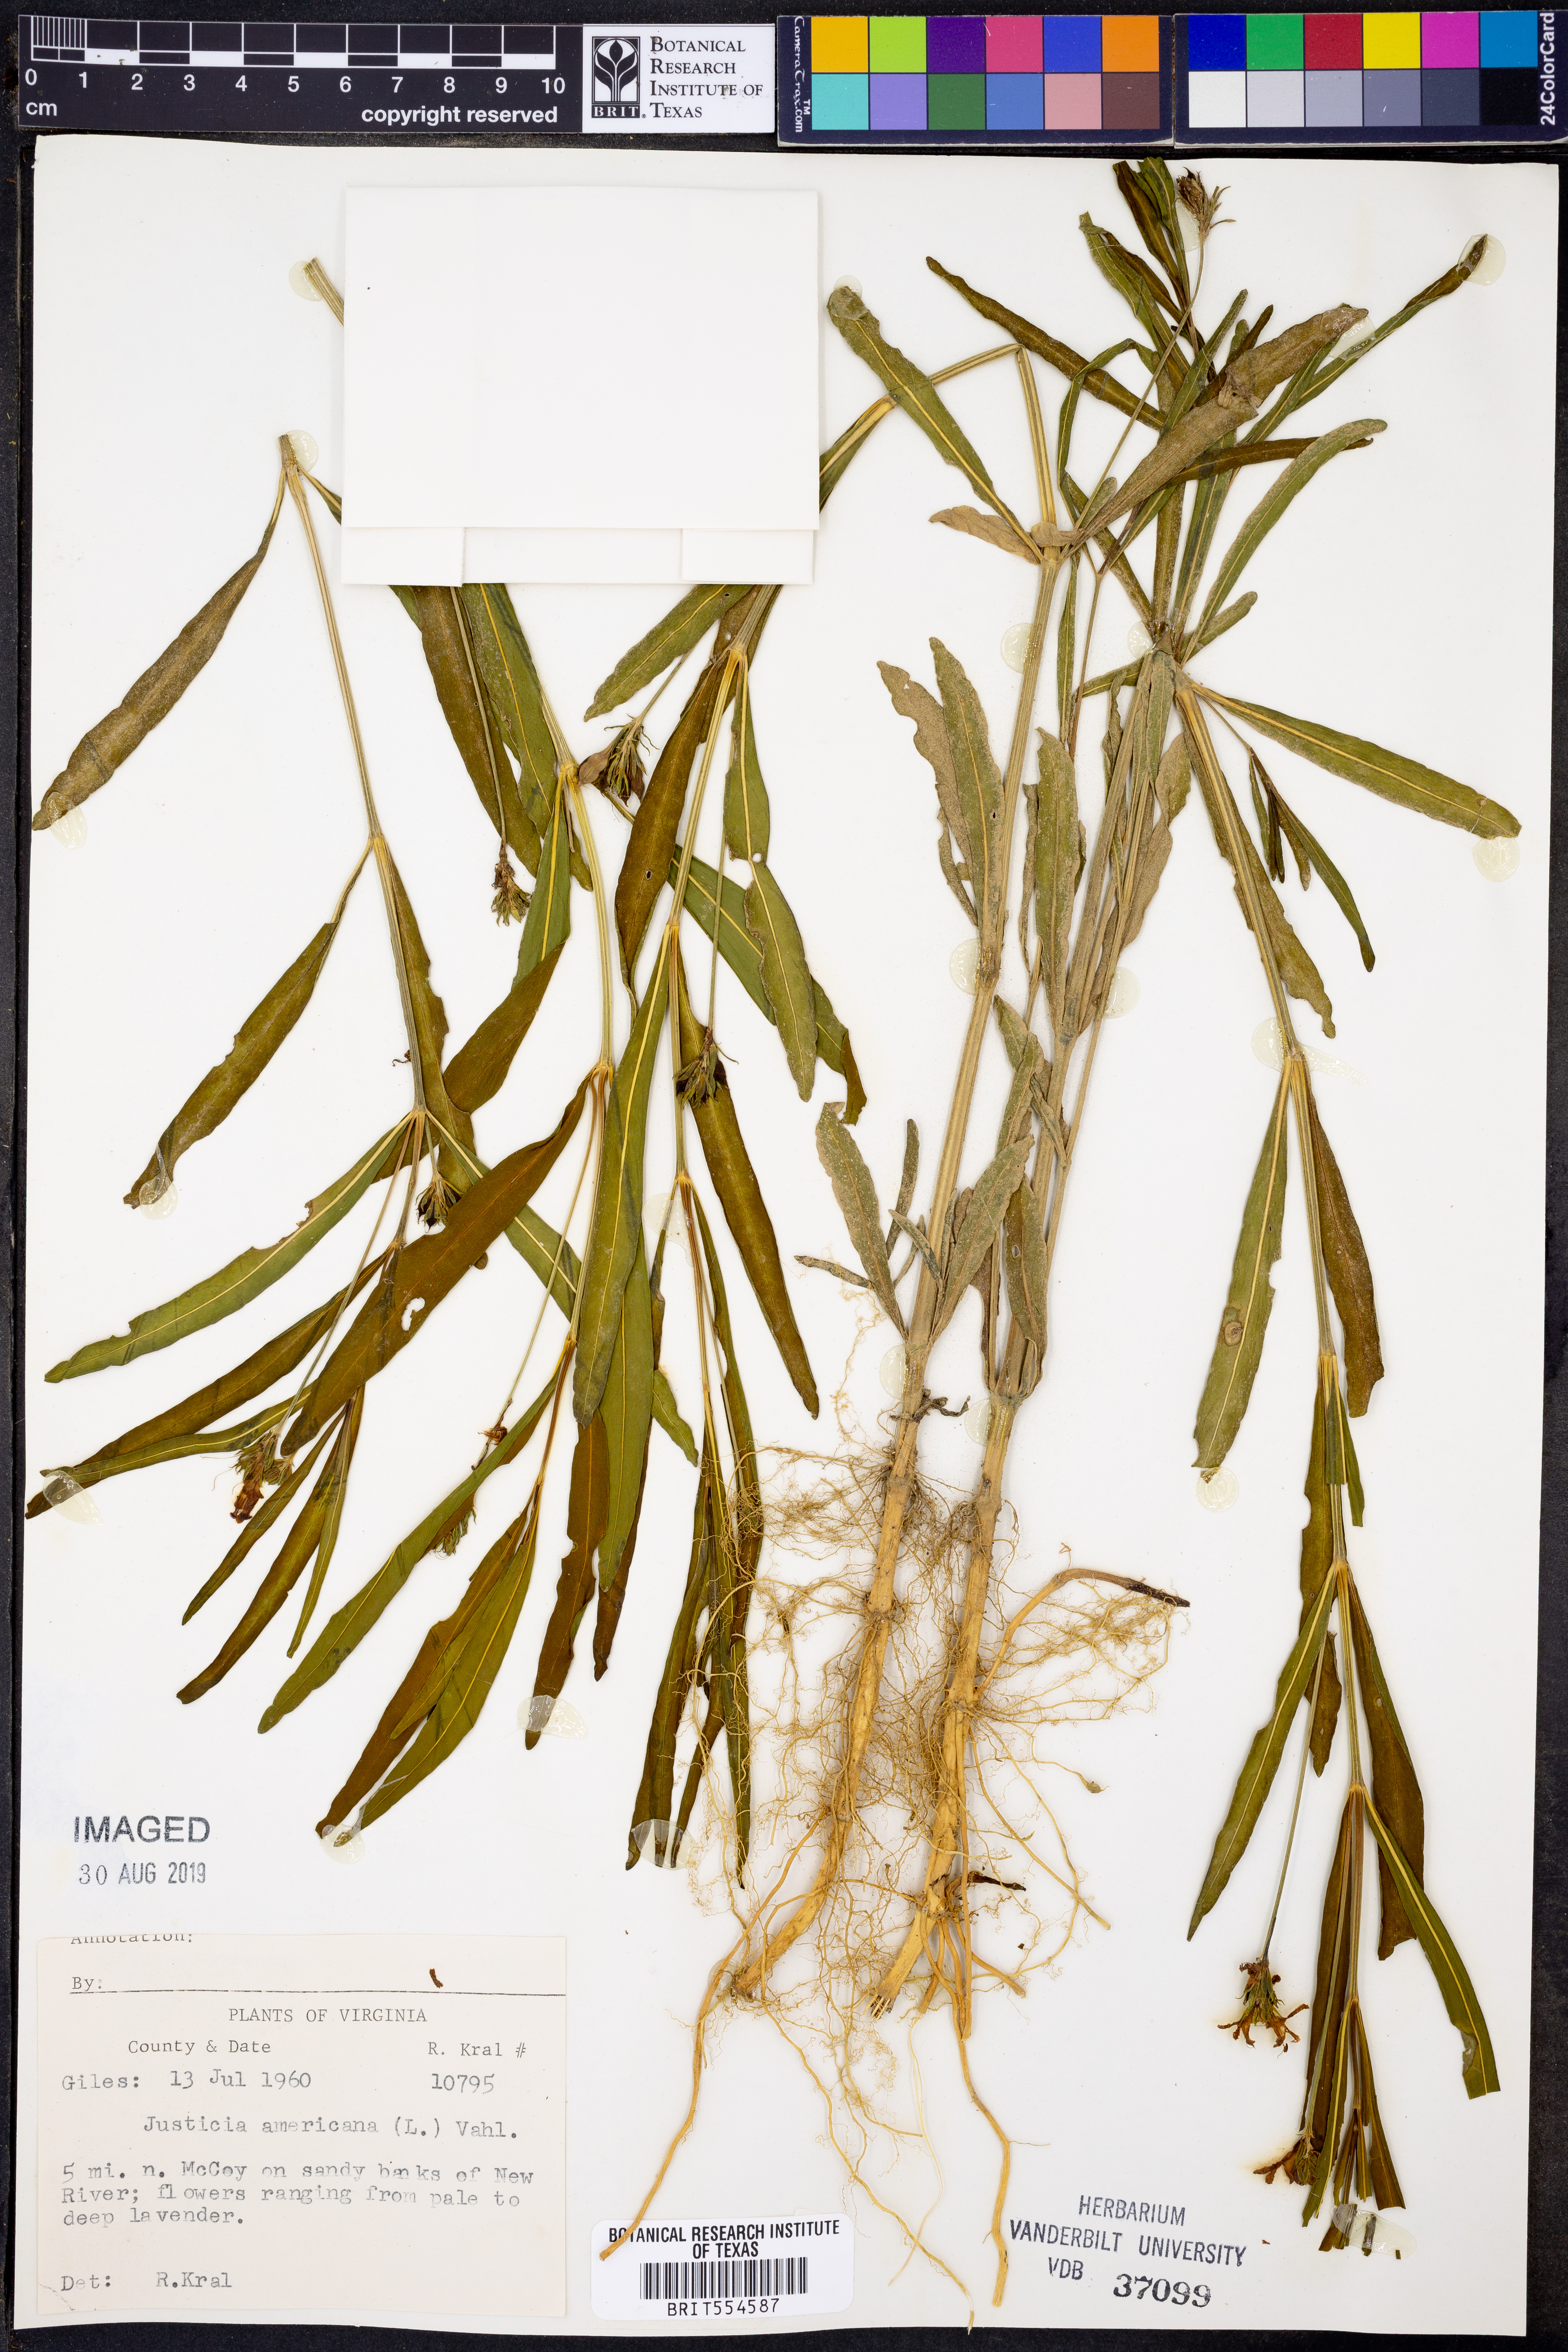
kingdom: Plantae
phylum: Tracheophyta
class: Magnoliopsida
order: Lamiales
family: Acanthaceae
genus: Dianthera
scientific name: Dianthera americana
